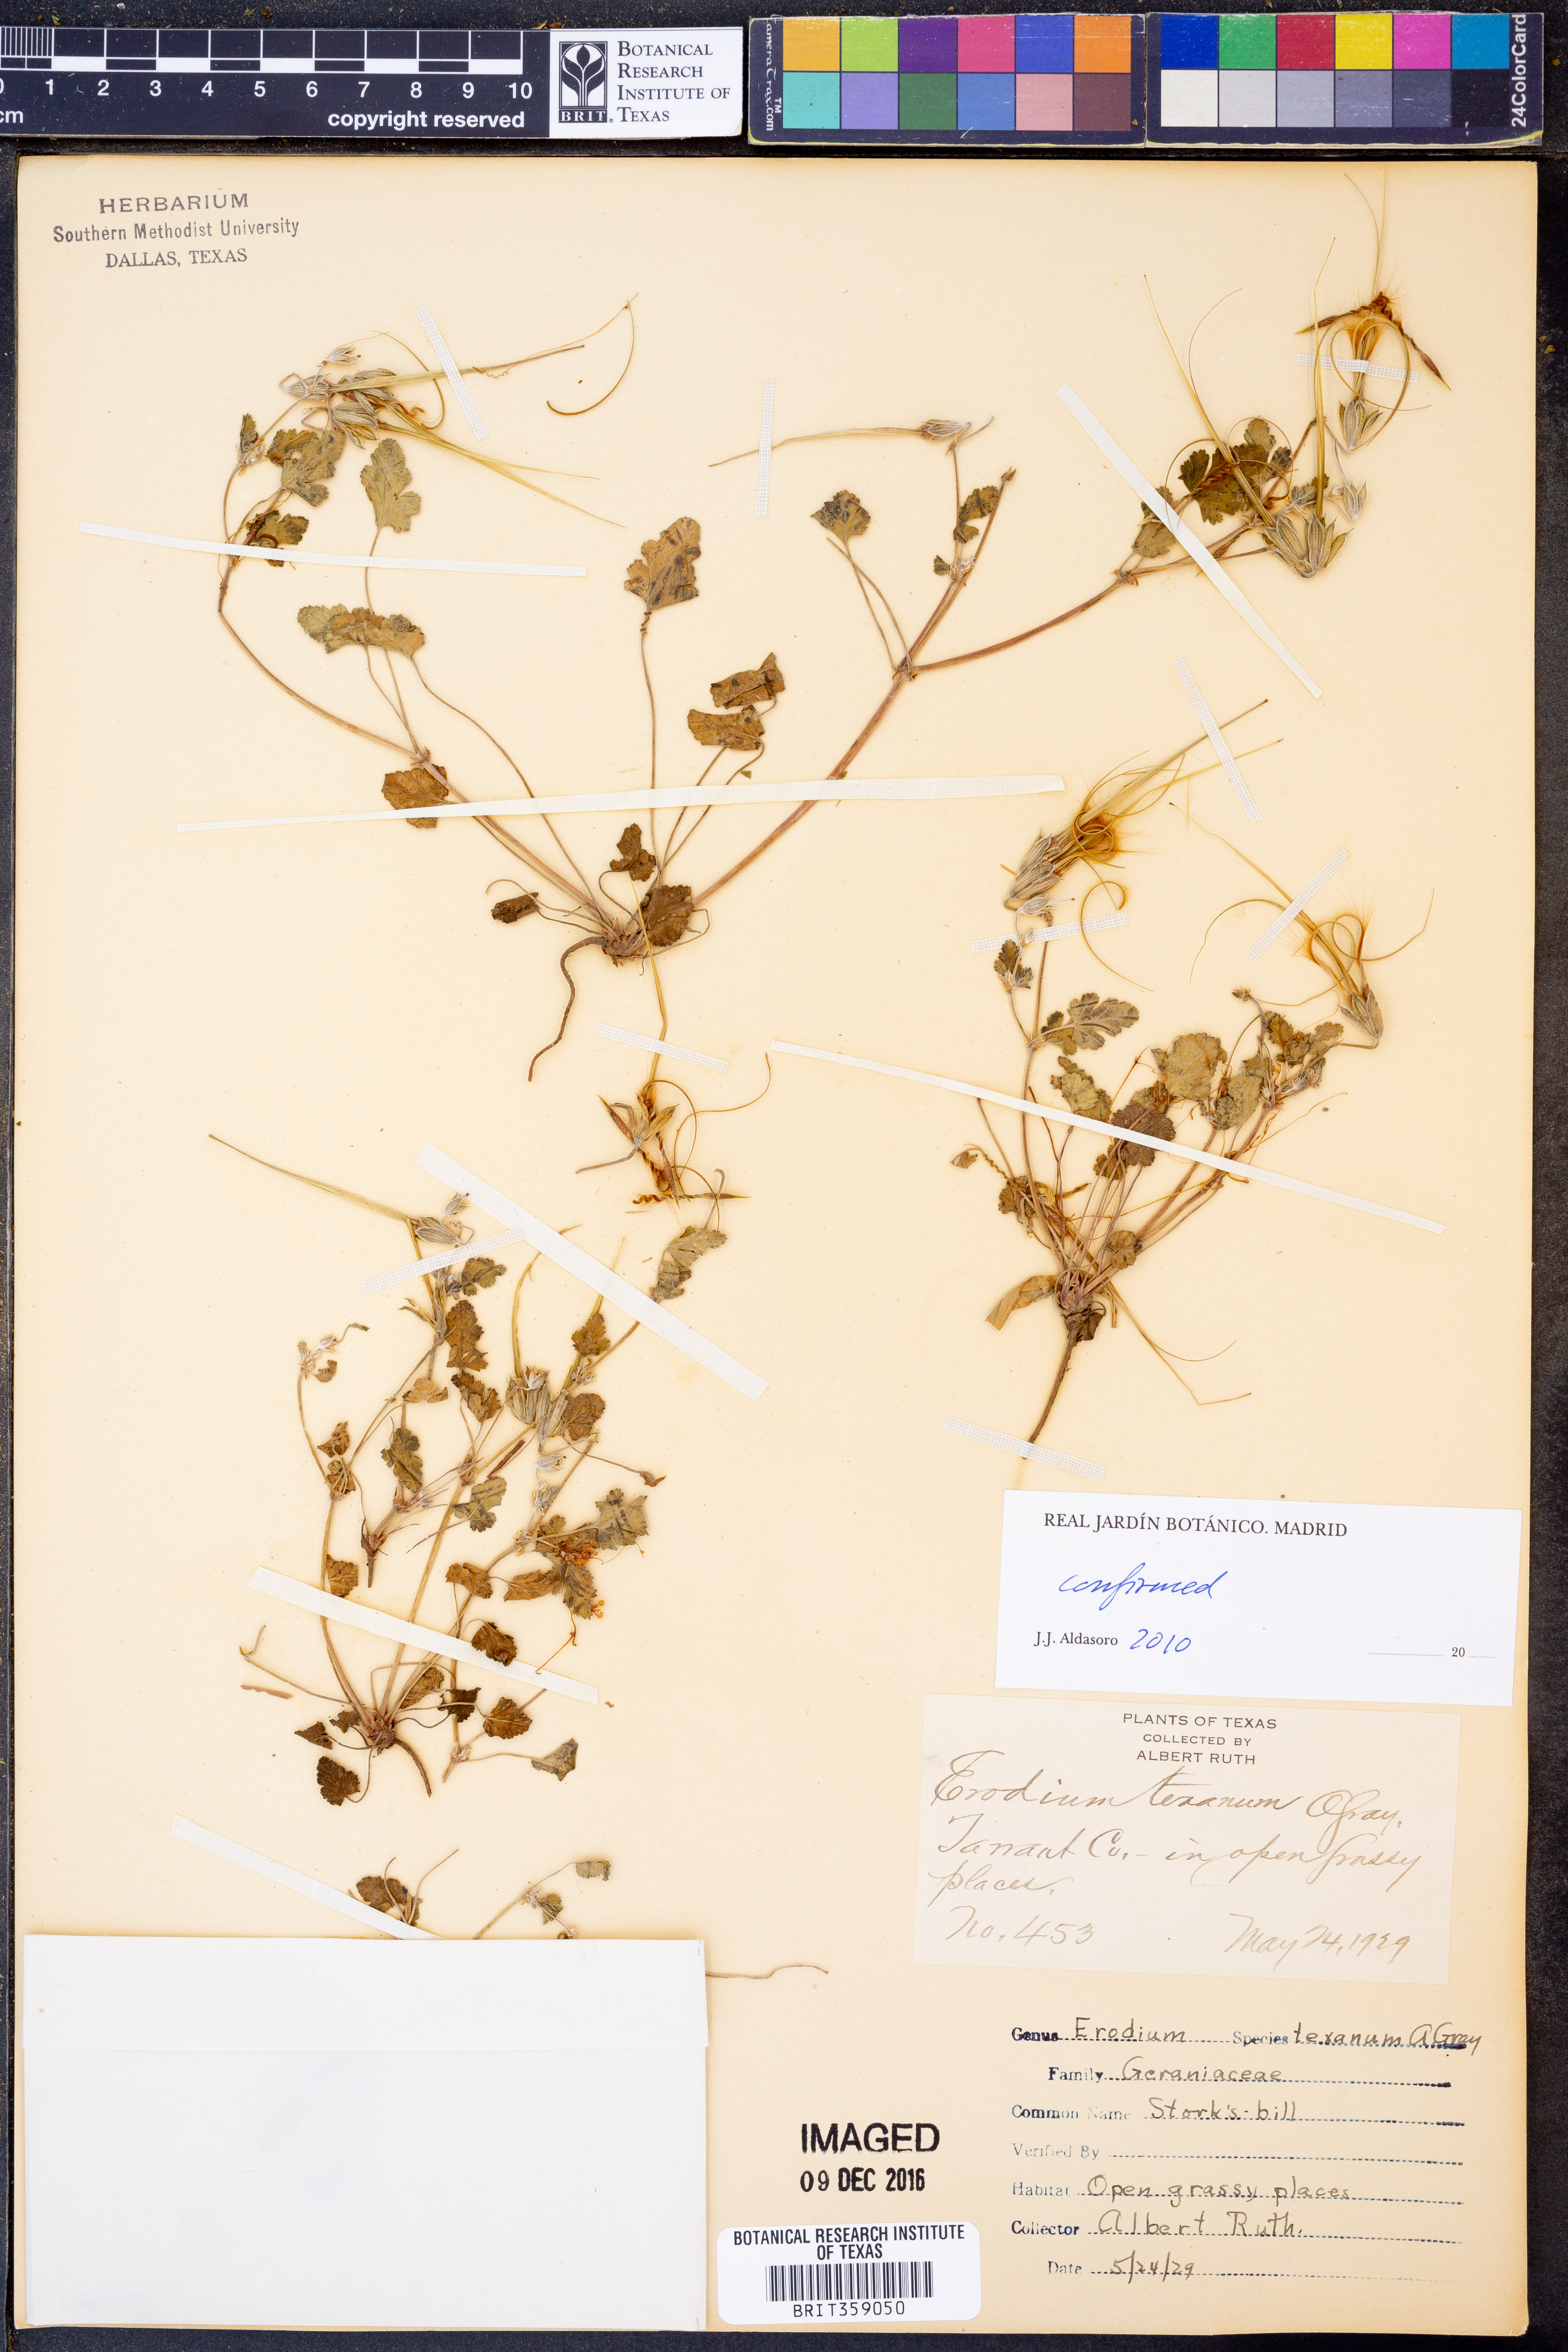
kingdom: Plantae
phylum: Tracheophyta
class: Magnoliopsida
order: Geraniales
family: Geraniaceae
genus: Erodium
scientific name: Erodium texanum
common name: Texas stork's-bill
